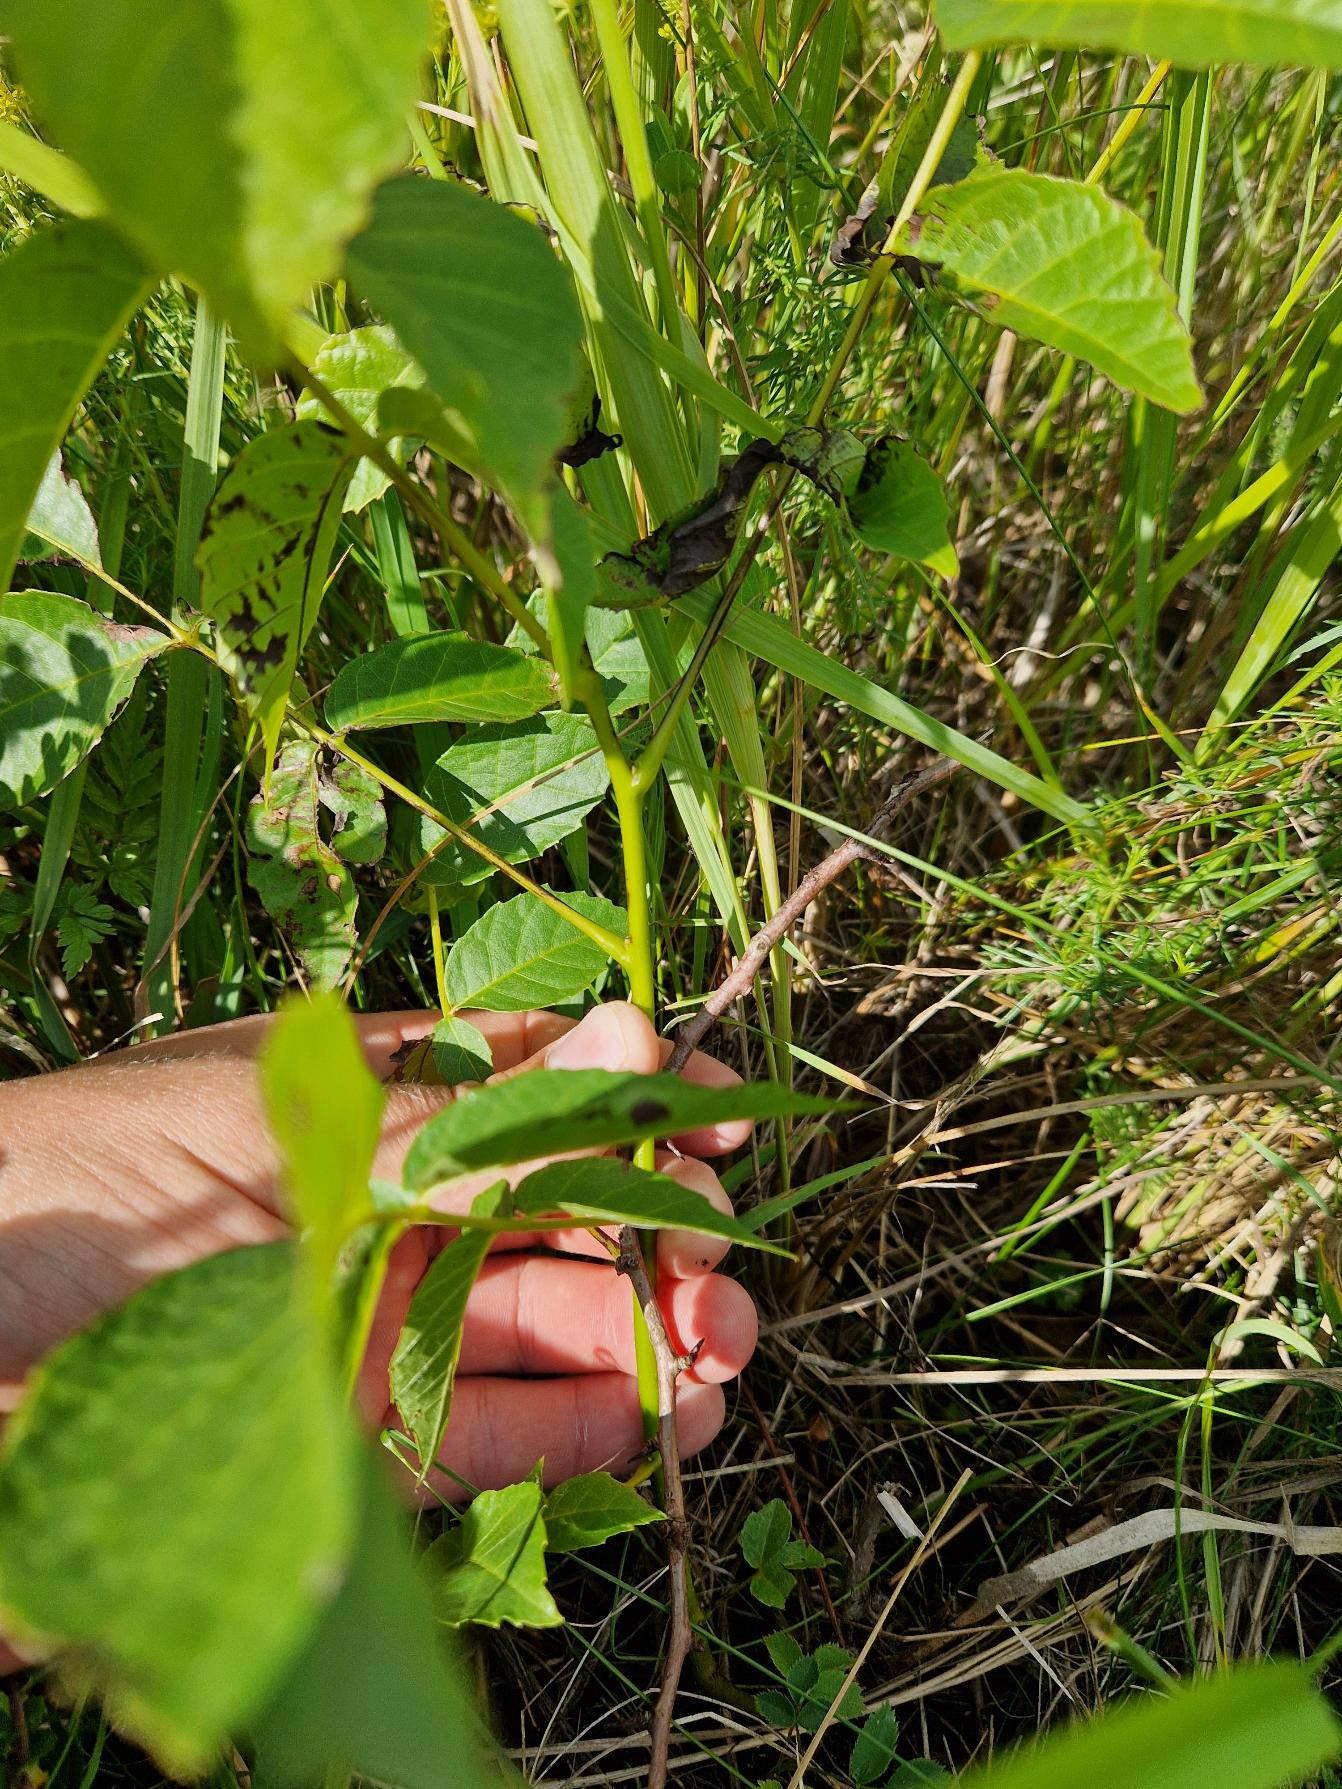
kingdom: Plantae
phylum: Tracheophyta
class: Magnoliopsida
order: Fagales
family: Juglandaceae
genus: Juglans
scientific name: Juglans regia
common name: Almindelig valnød
